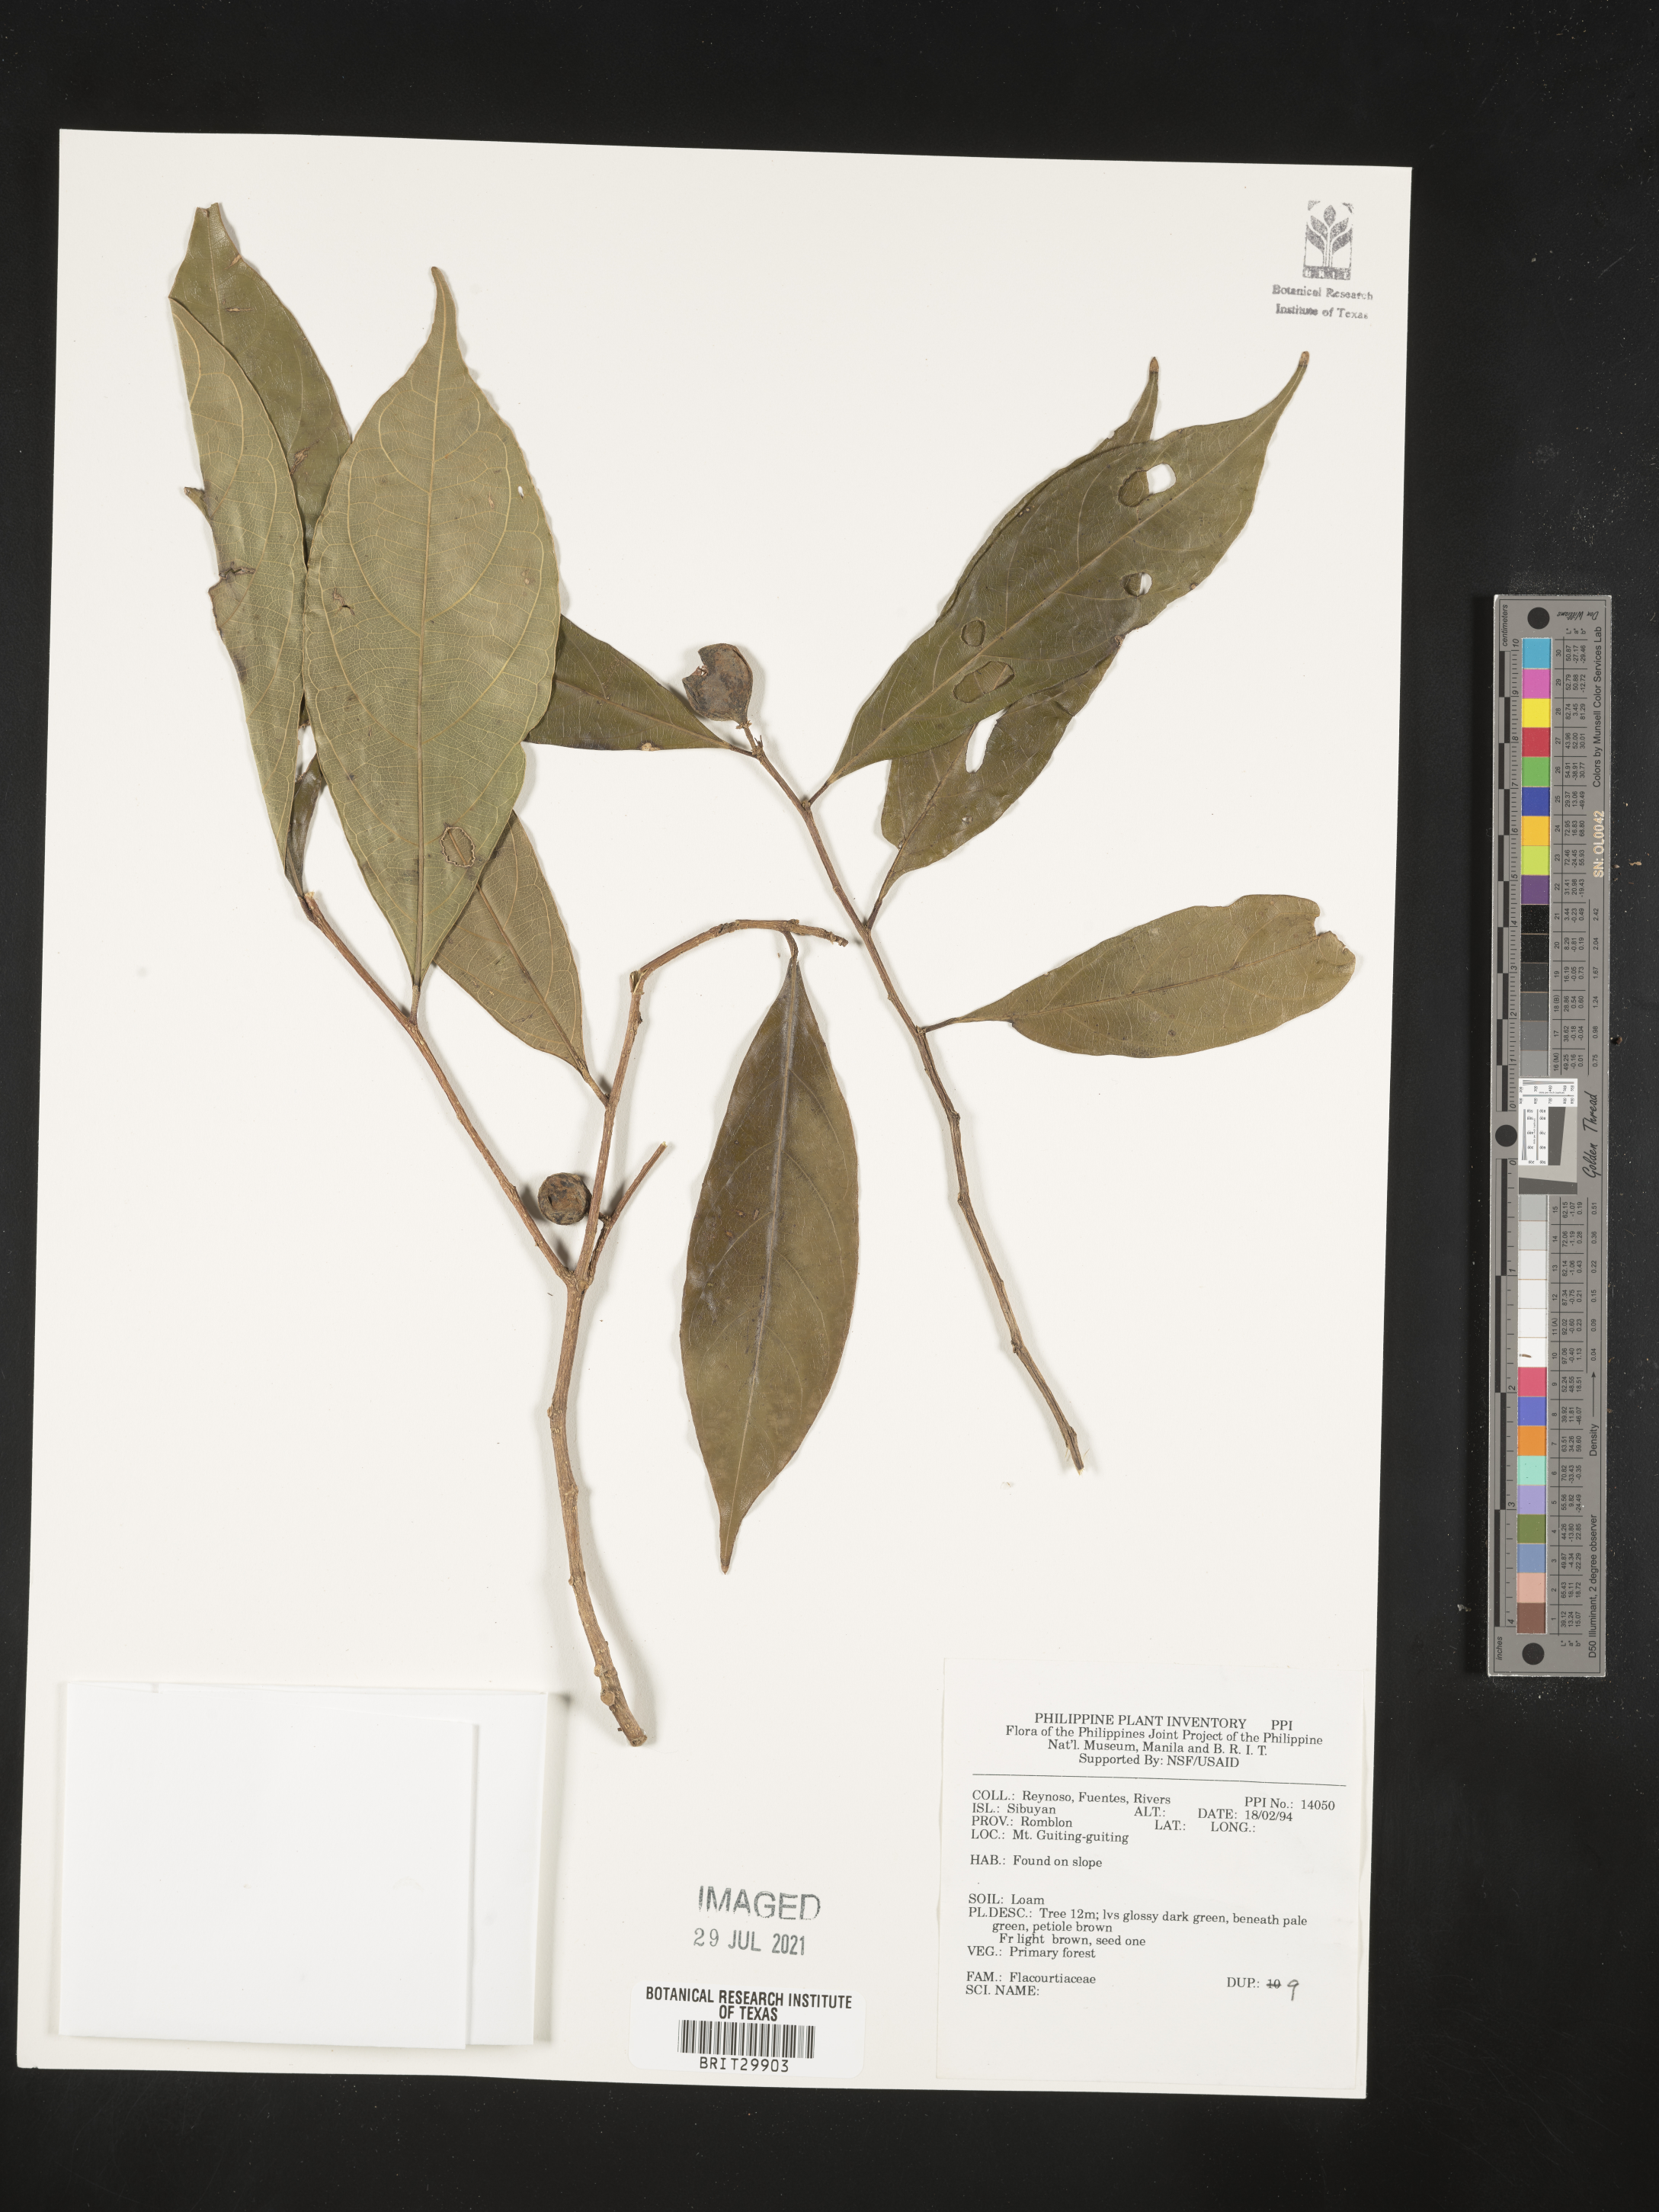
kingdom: Plantae
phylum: Tracheophyta
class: Magnoliopsida
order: Malpighiales
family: Flacourtiaceae
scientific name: Flacourtiaceae
